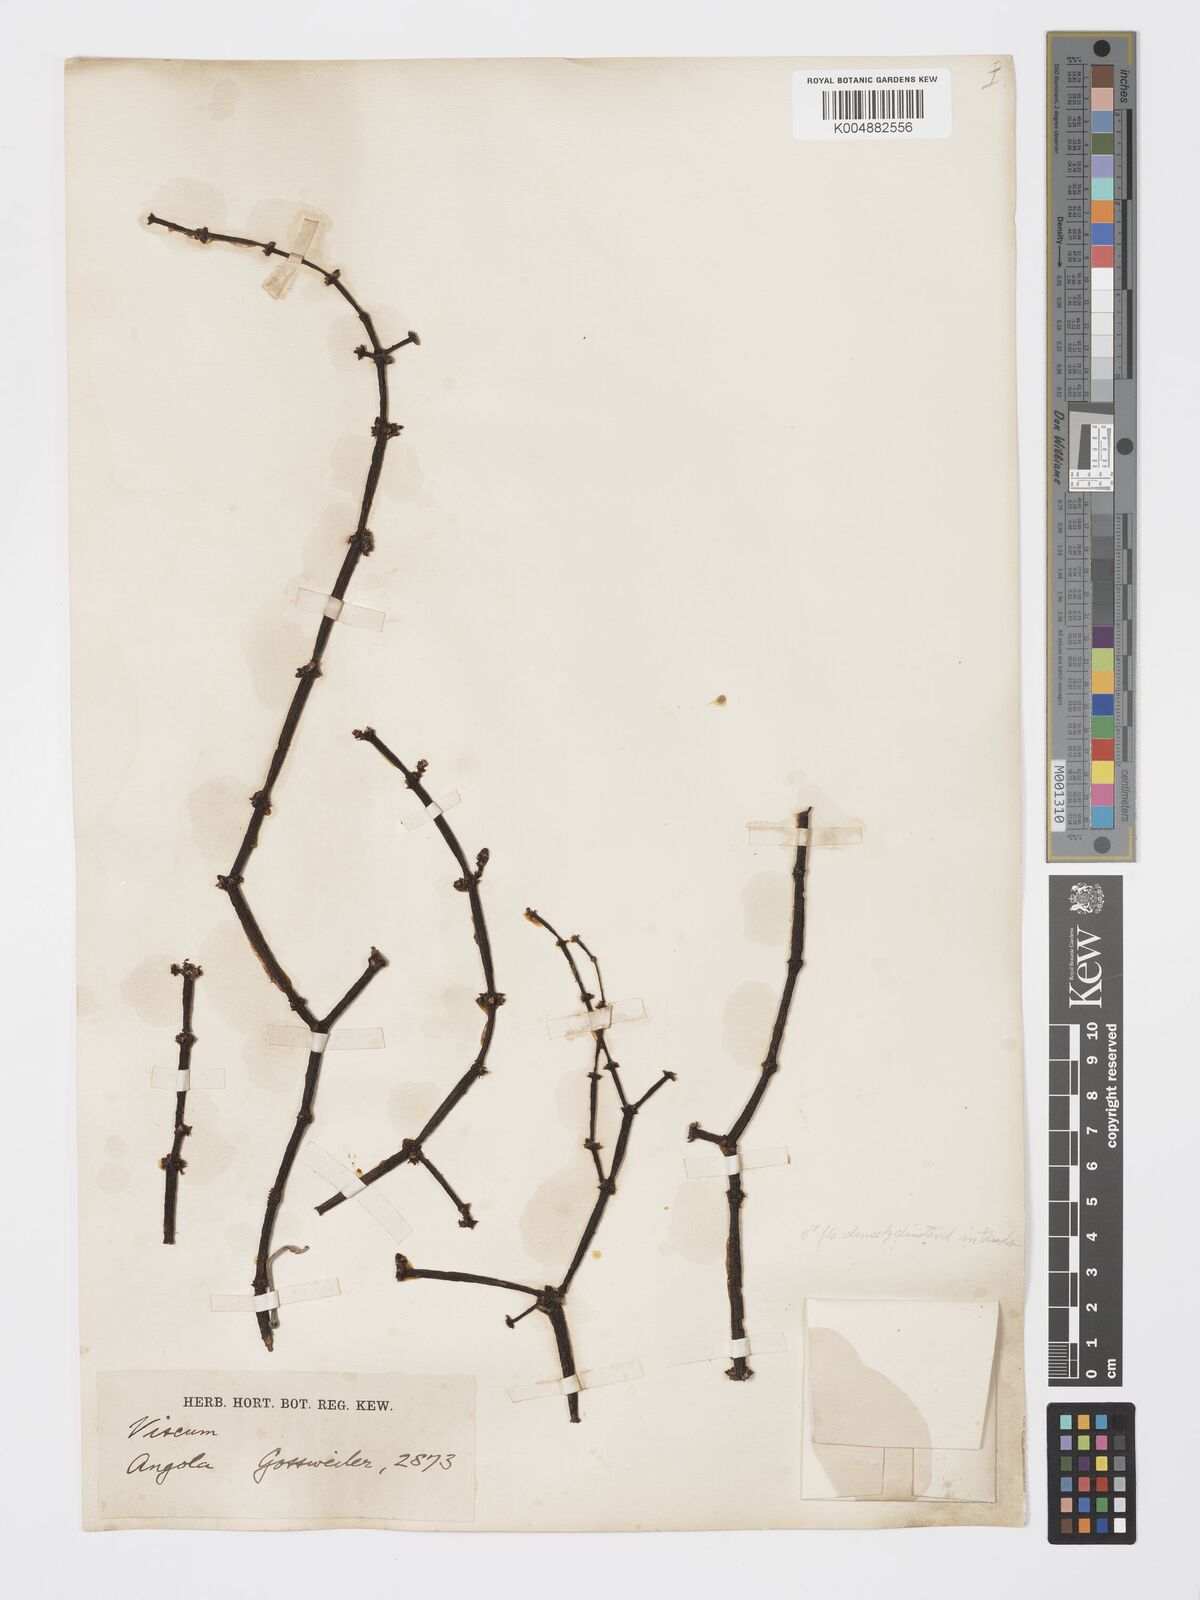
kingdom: Plantae
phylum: Tracheophyta
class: Magnoliopsida
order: Santalales
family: Viscaceae
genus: Viscum
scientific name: Viscum combreticola
